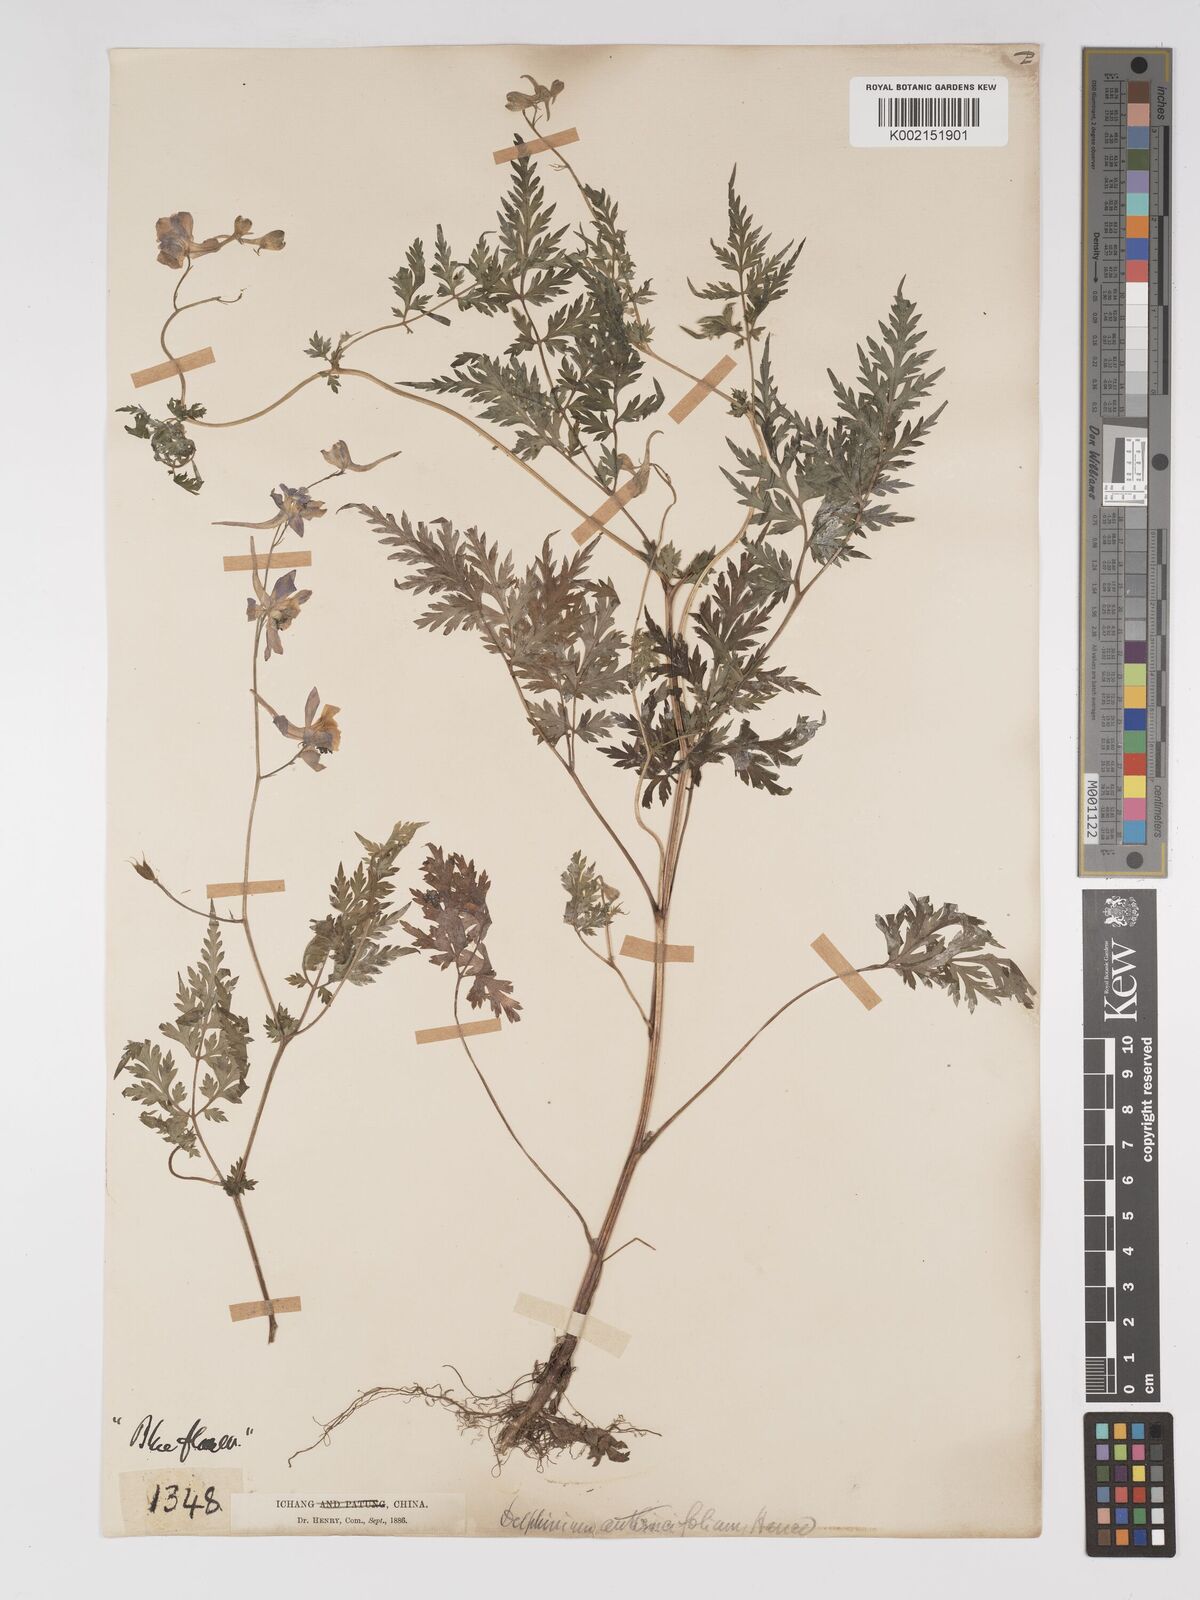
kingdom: Plantae
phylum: Tracheophyta
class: Magnoliopsida
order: Ranunculales
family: Ranunculaceae
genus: Delphinium
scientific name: Delphinium anthriscifolium
